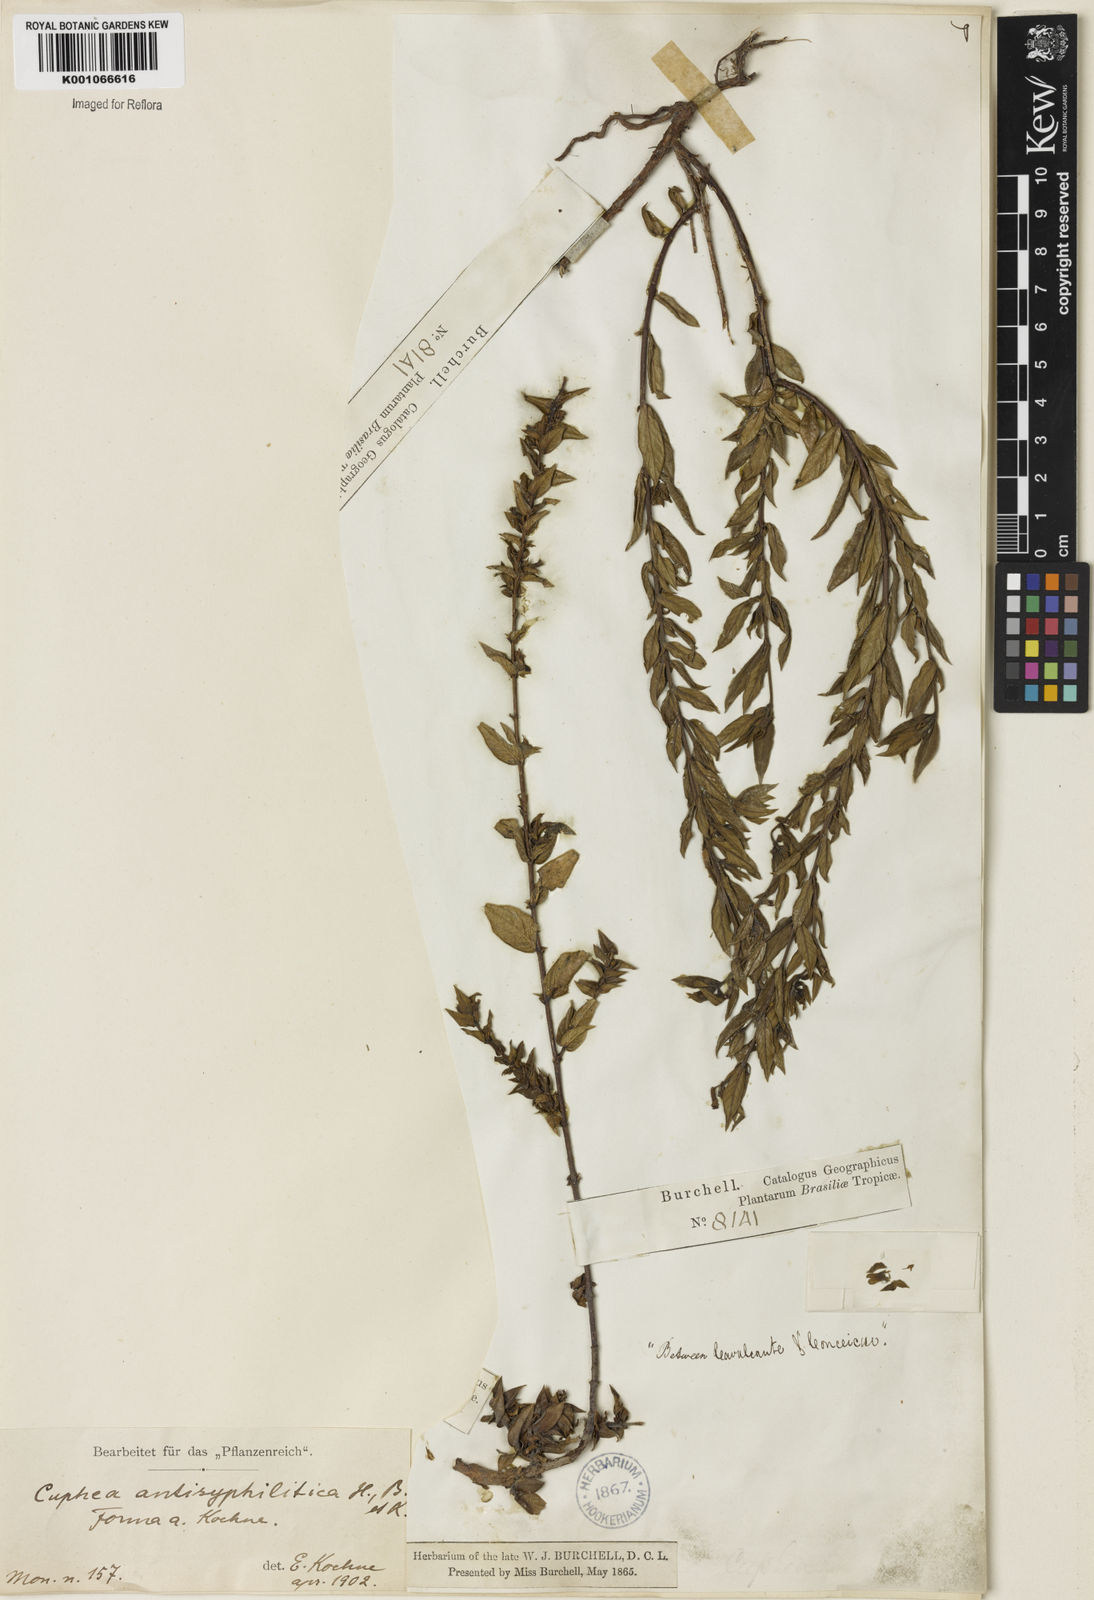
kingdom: Plantae
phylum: Tracheophyta
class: Magnoliopsida
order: Myrtales
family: Lythraceae
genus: Cuphea
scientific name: Cuphea antisyphilitica
